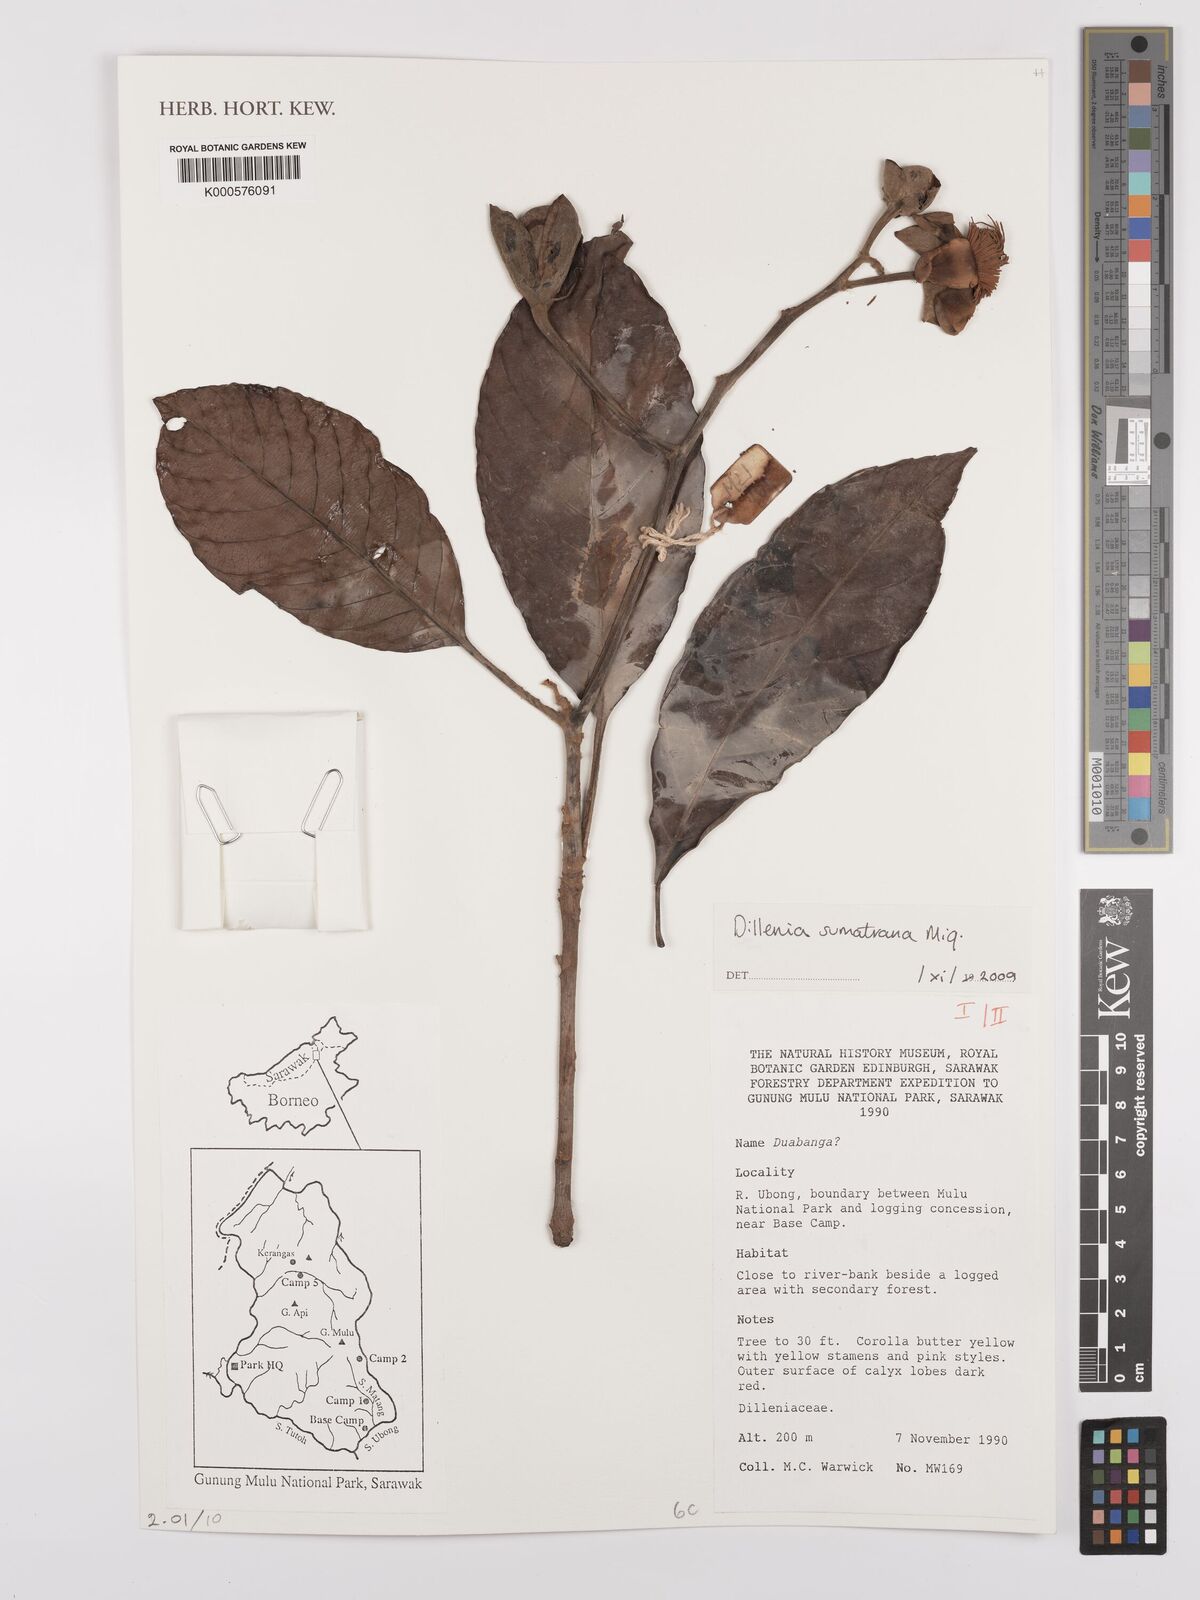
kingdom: Plantae
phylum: Tracheophyta
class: Magnoliopsida
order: Dilleniales
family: Dilleniaceae
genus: Dillenia
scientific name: Dillenia sumatrana
